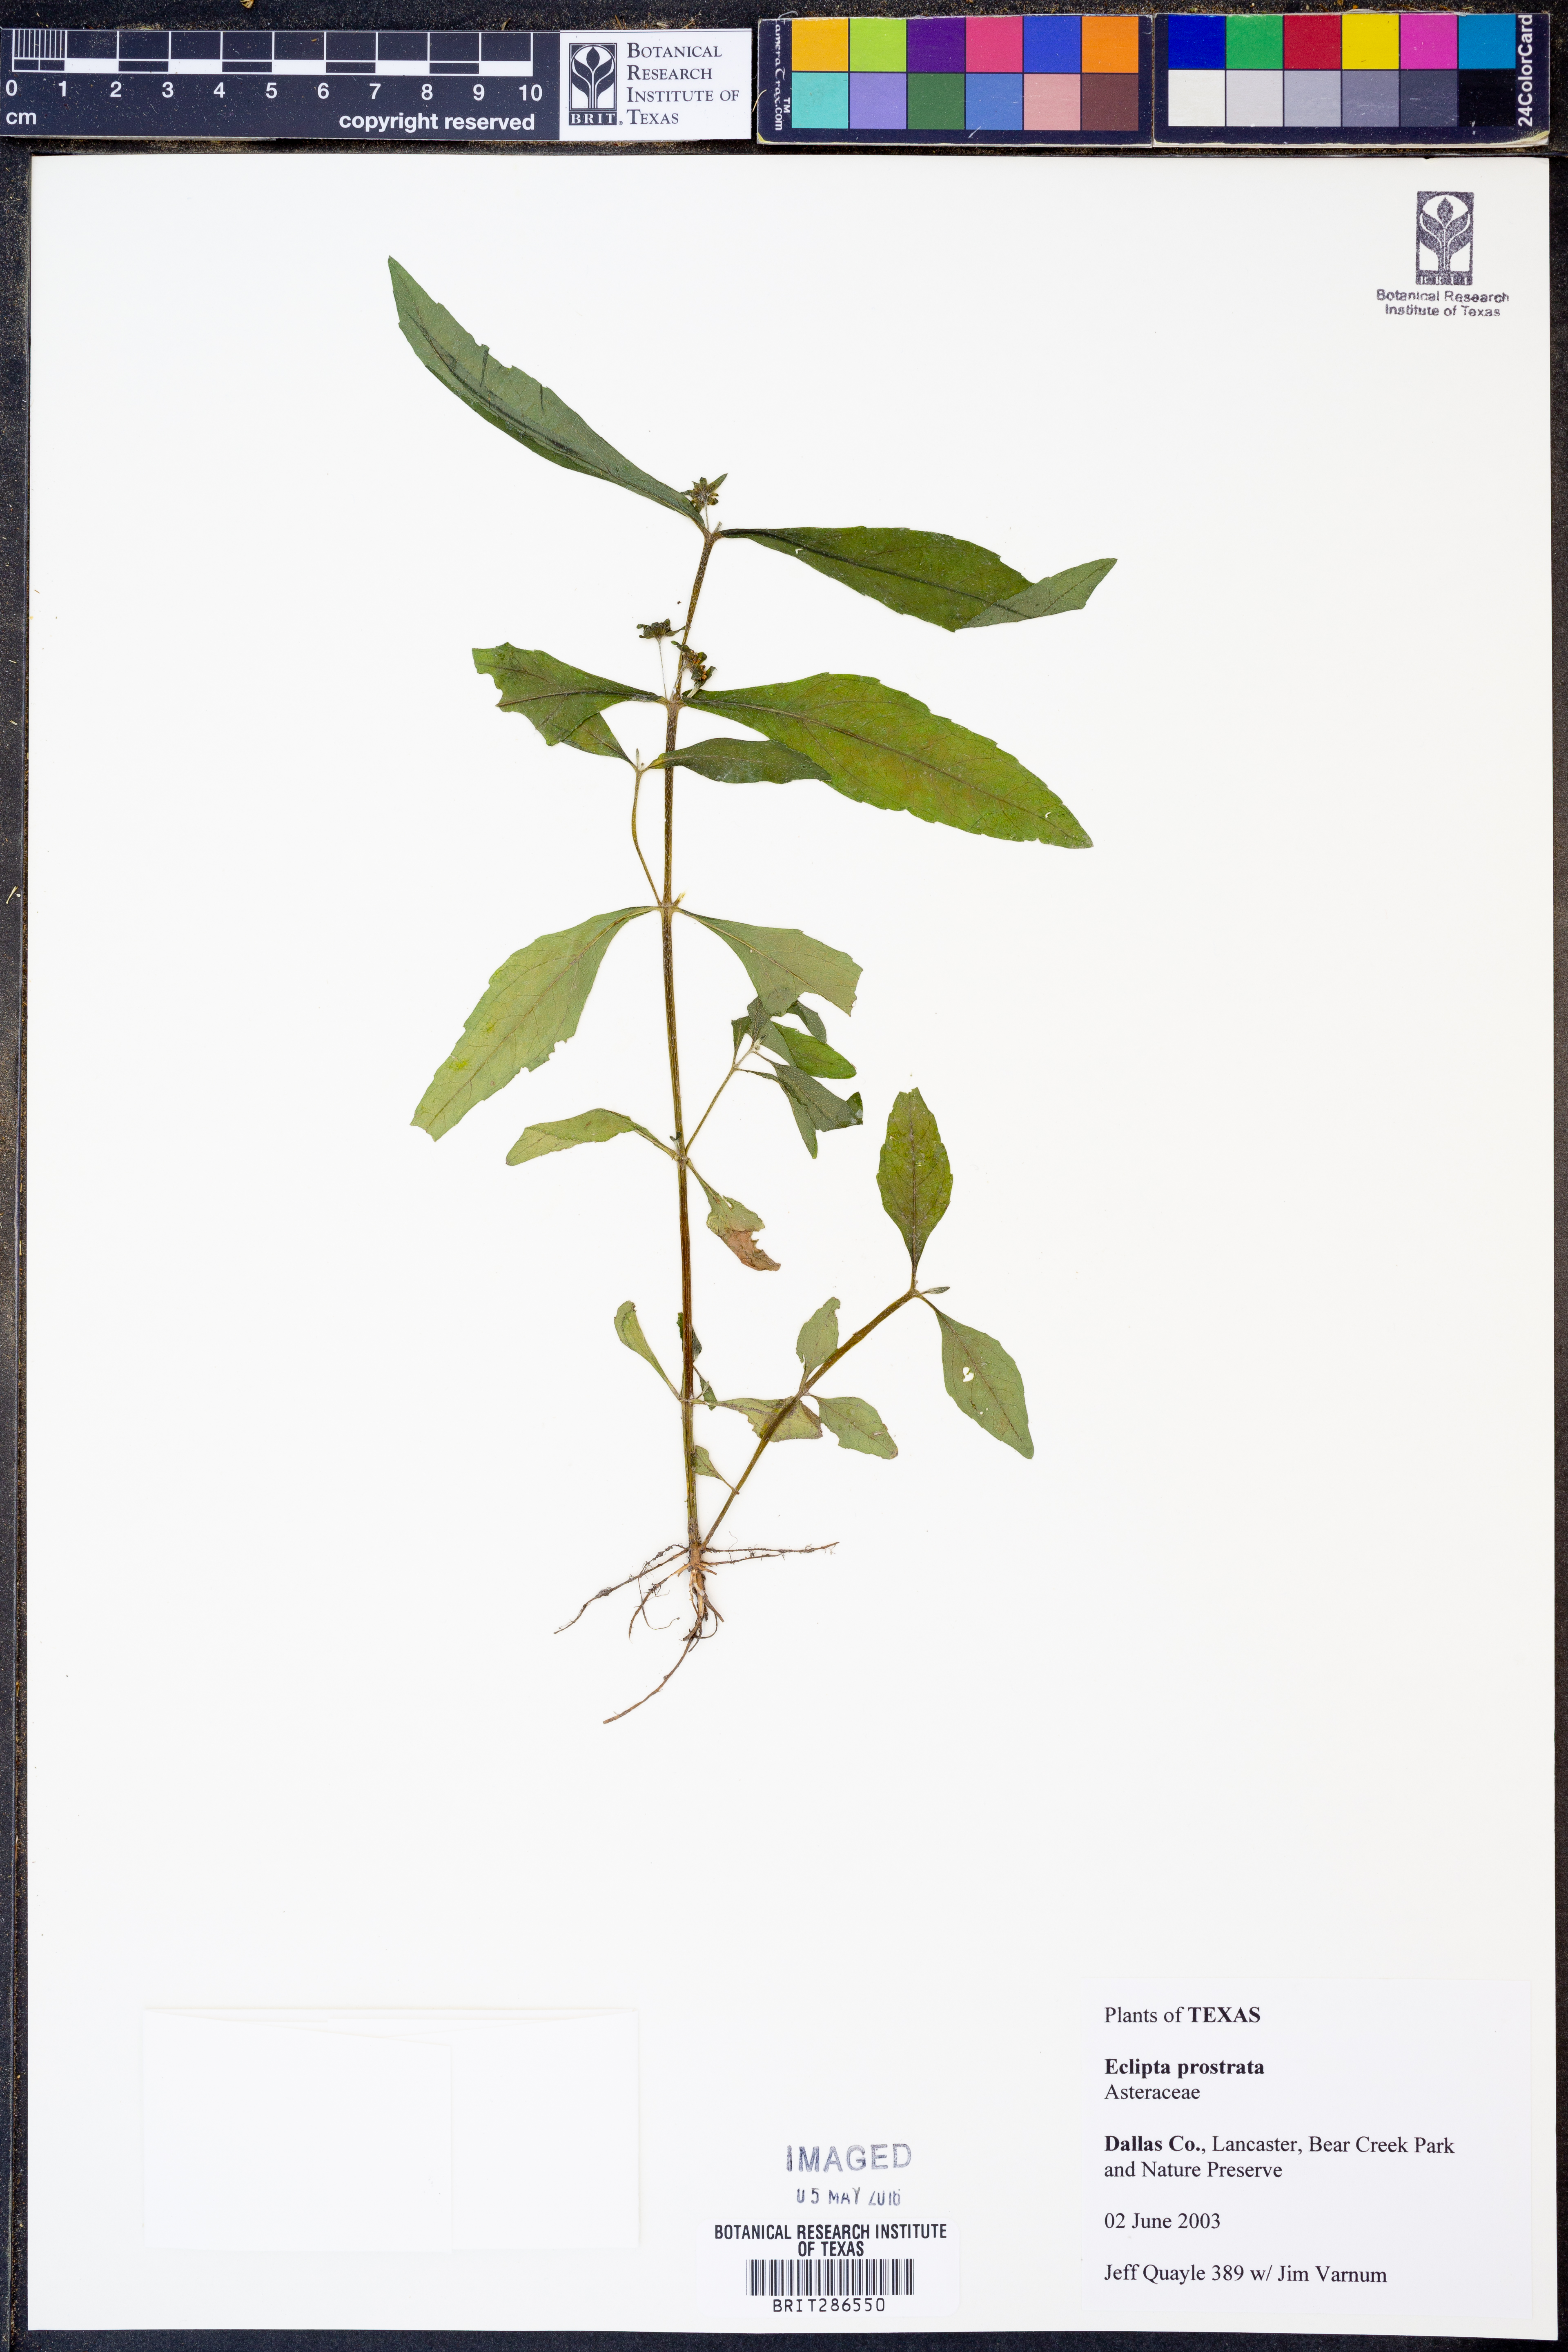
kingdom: Plantae
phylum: Tracheophyta
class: Magnoliopsida
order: Asterales
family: Asteraceae
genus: Eclipta
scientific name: Eclipta prostrata
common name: False daisy
